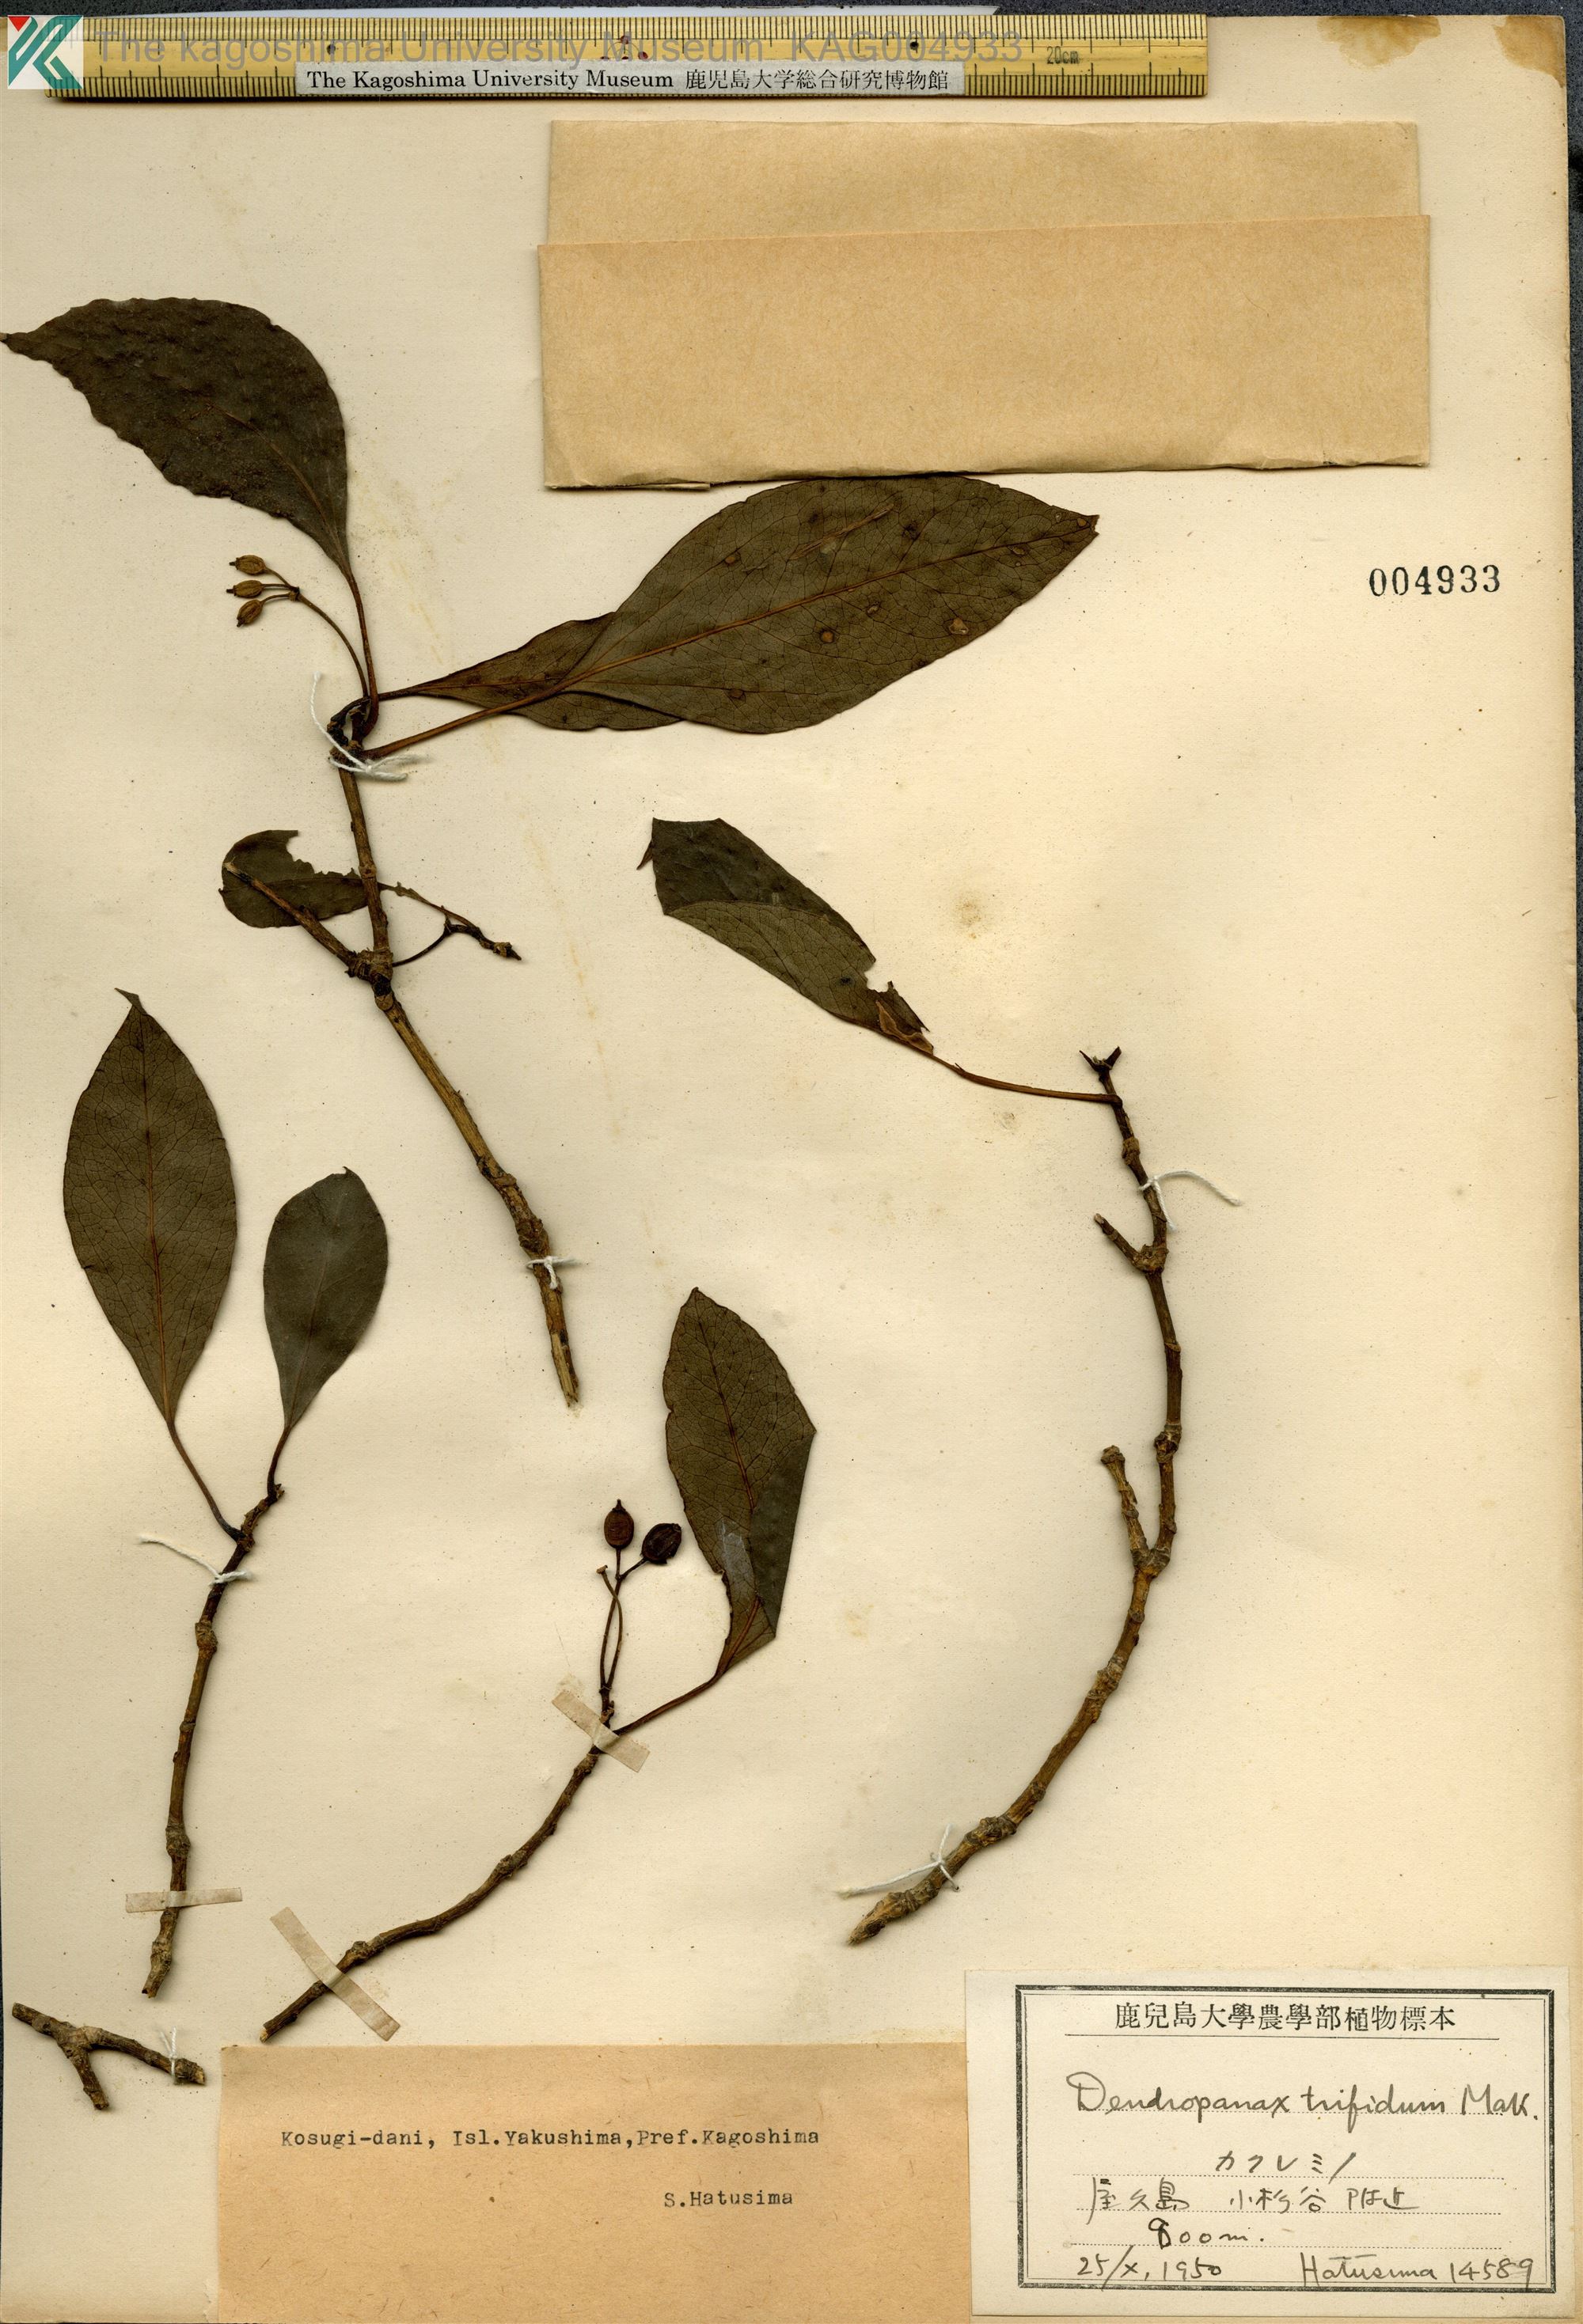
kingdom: Plantae
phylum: Tracheophyta
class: Magnoliopsida
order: Apiales
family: Araliaceae
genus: Dendropanax
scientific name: Dendropanax trifidus
